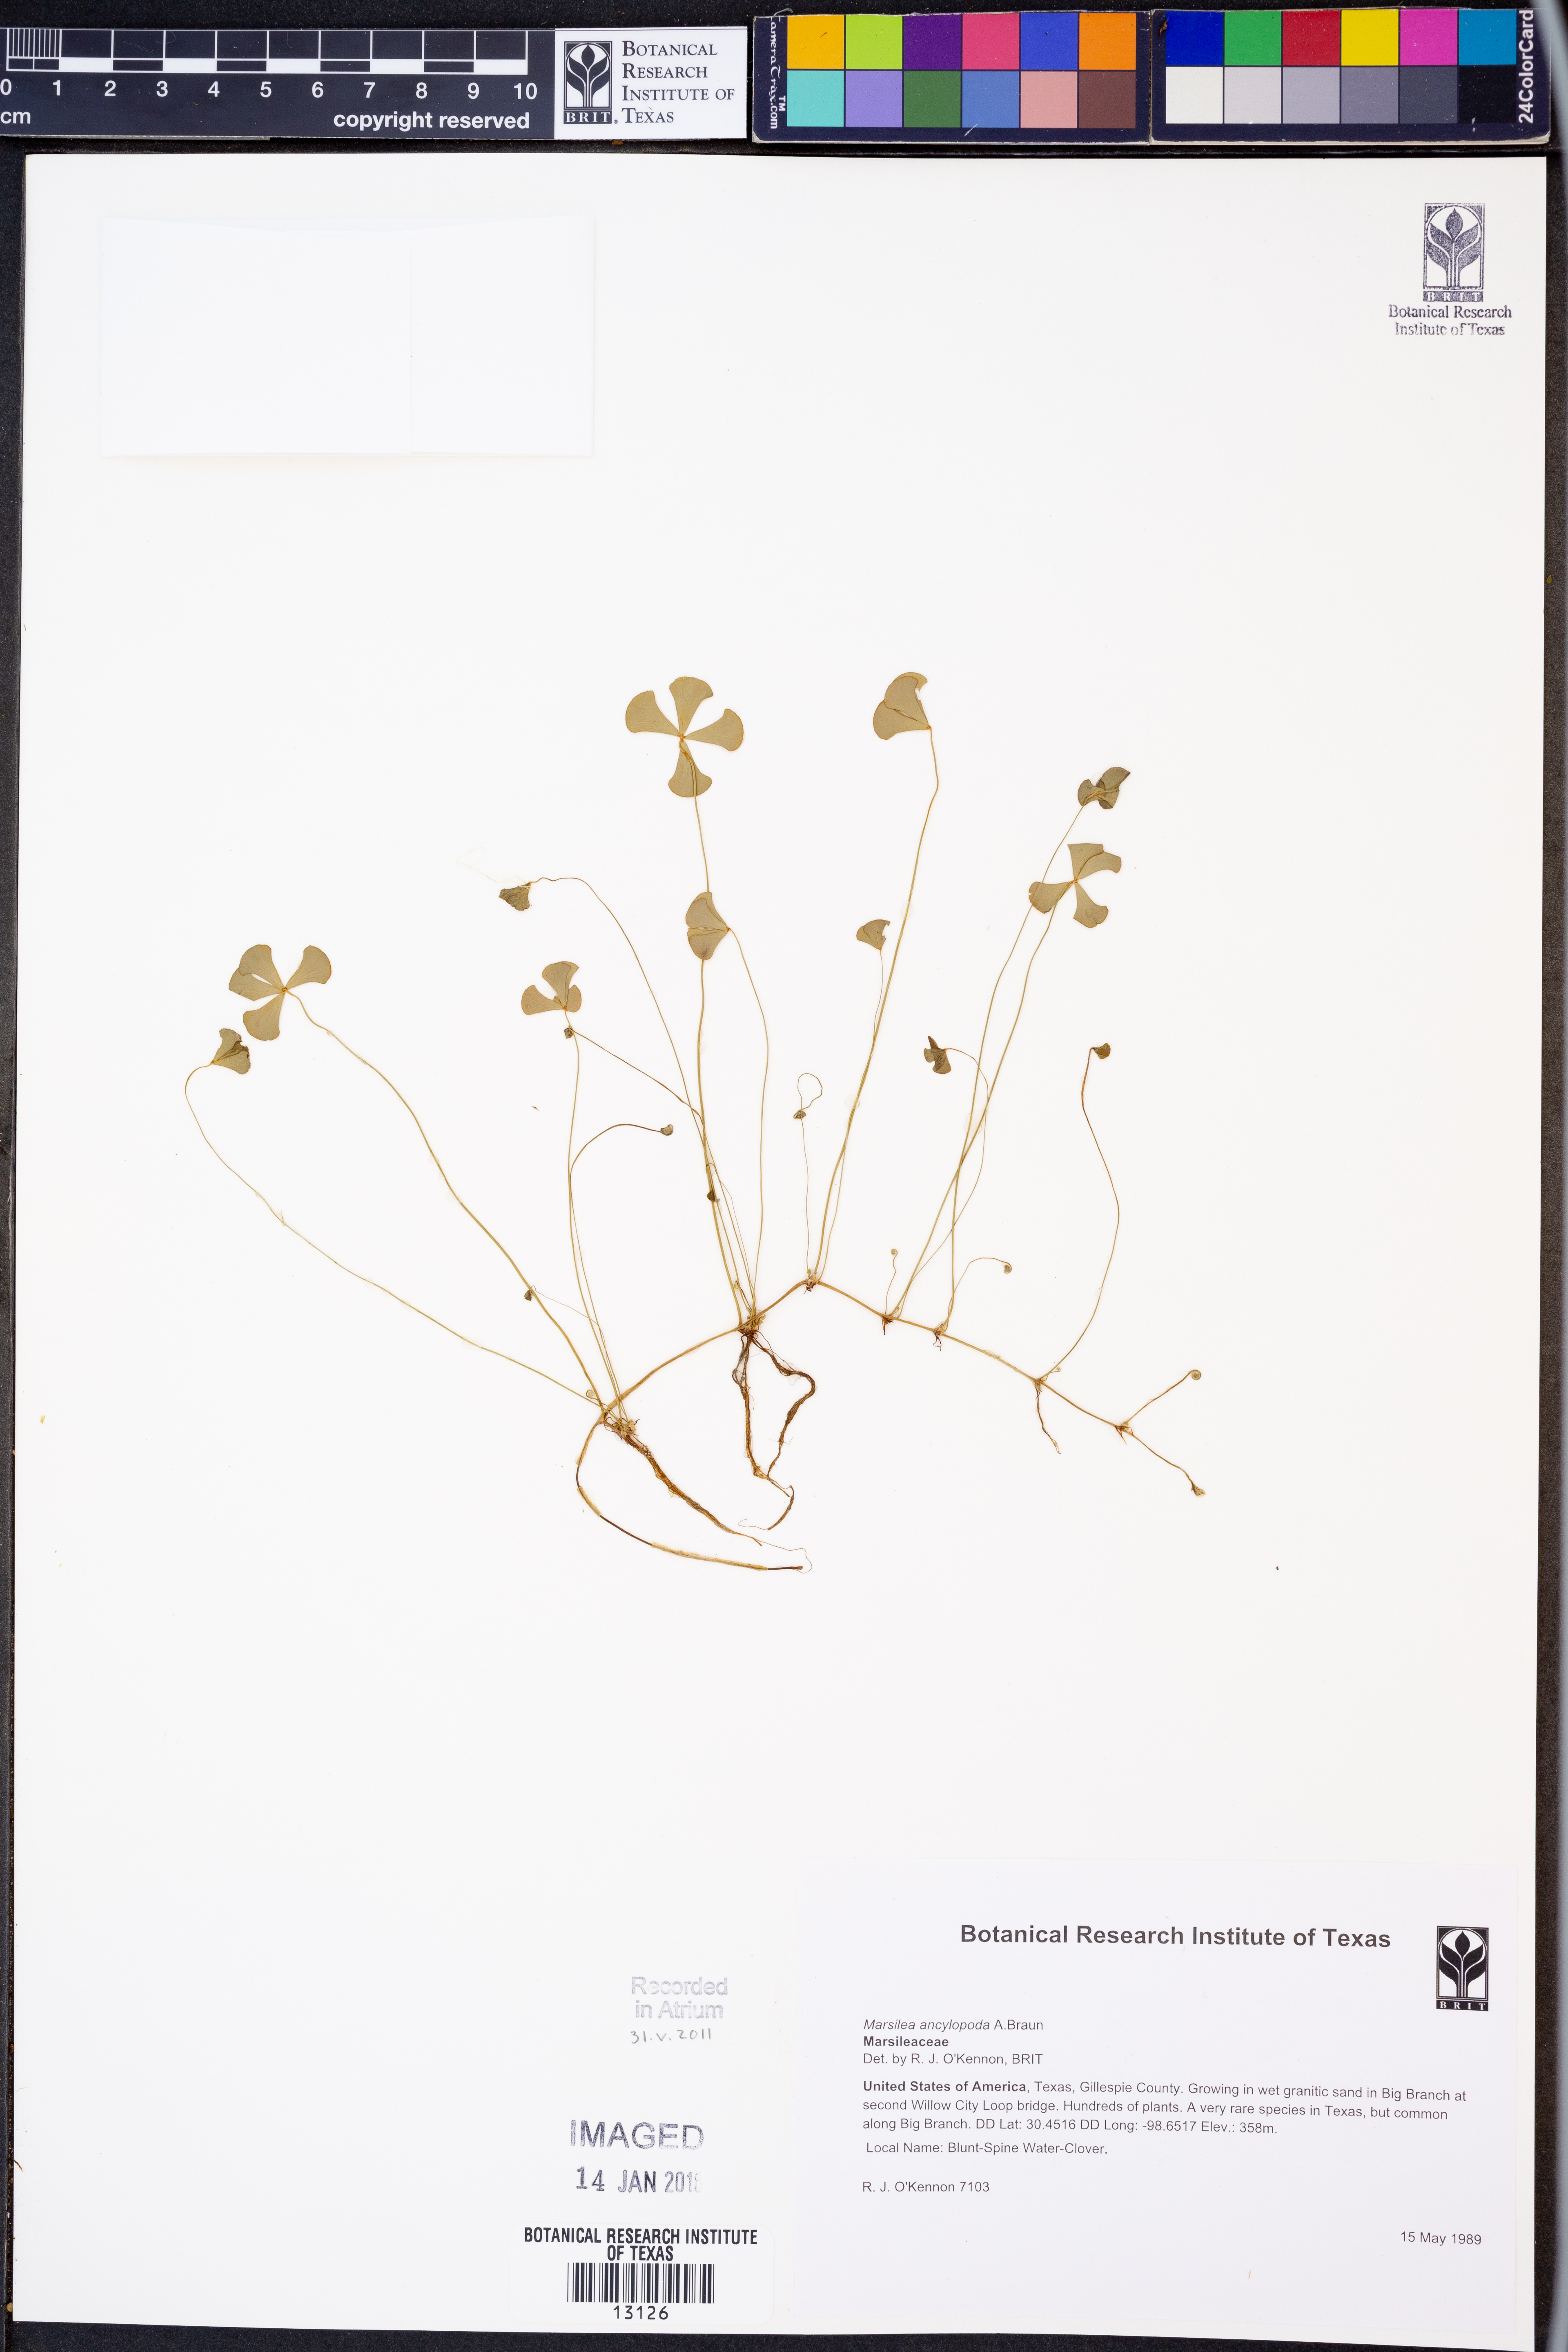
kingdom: Plantae
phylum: Tracheophyta
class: Polypodiopsida
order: Salviniales
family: Marsileaceae
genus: Marsilea
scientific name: Marsilea ancylopoda
